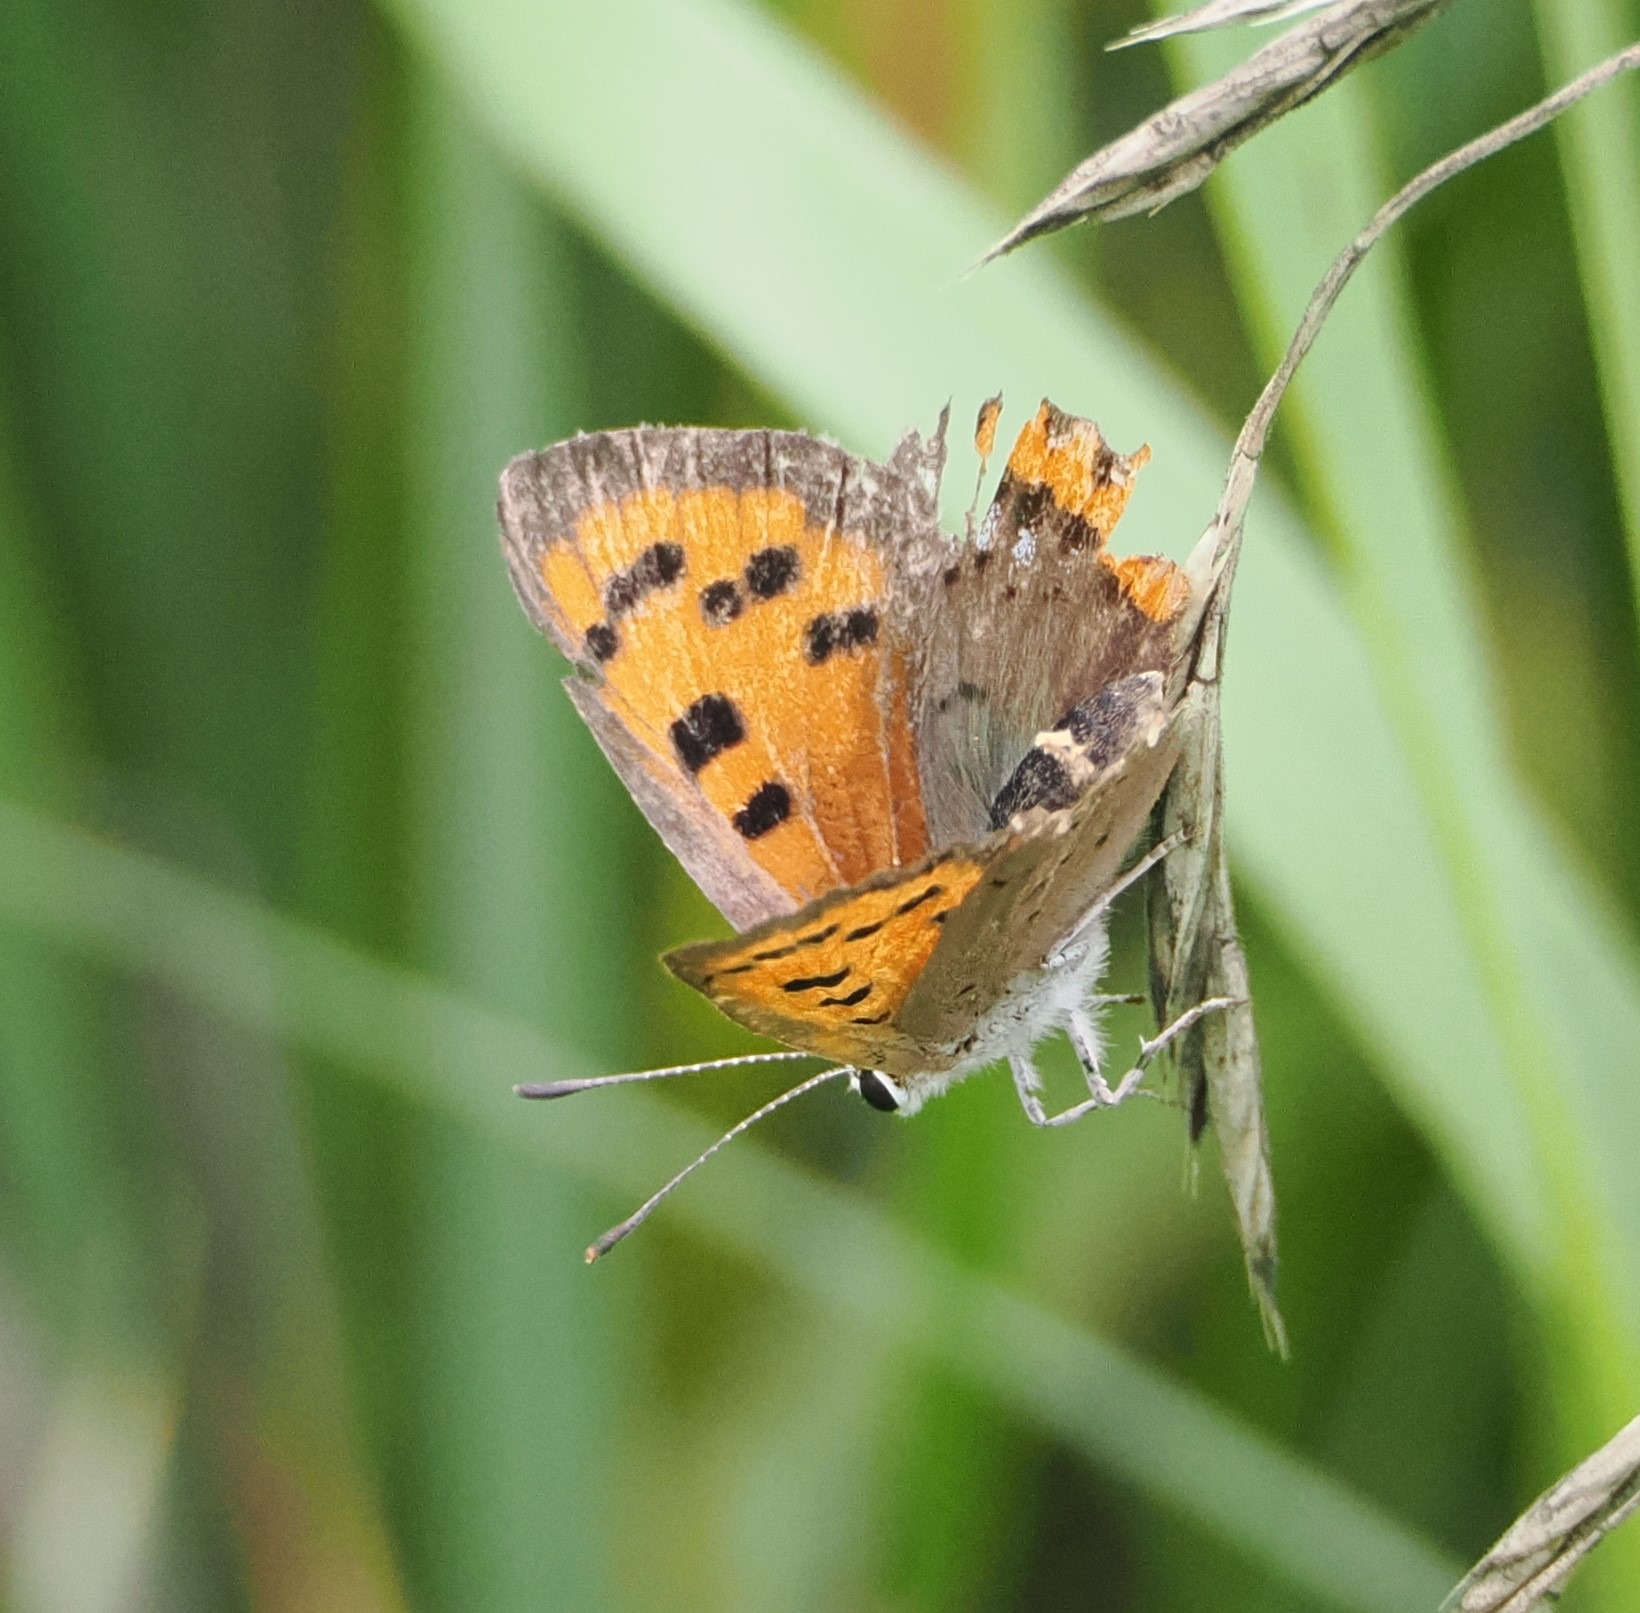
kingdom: Animalia
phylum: Arthropoda
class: Insecta
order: Lepidoptera
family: Lycaenidae
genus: Lycaena
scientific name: Lycaena phlaeas
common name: Lille ildfugl
